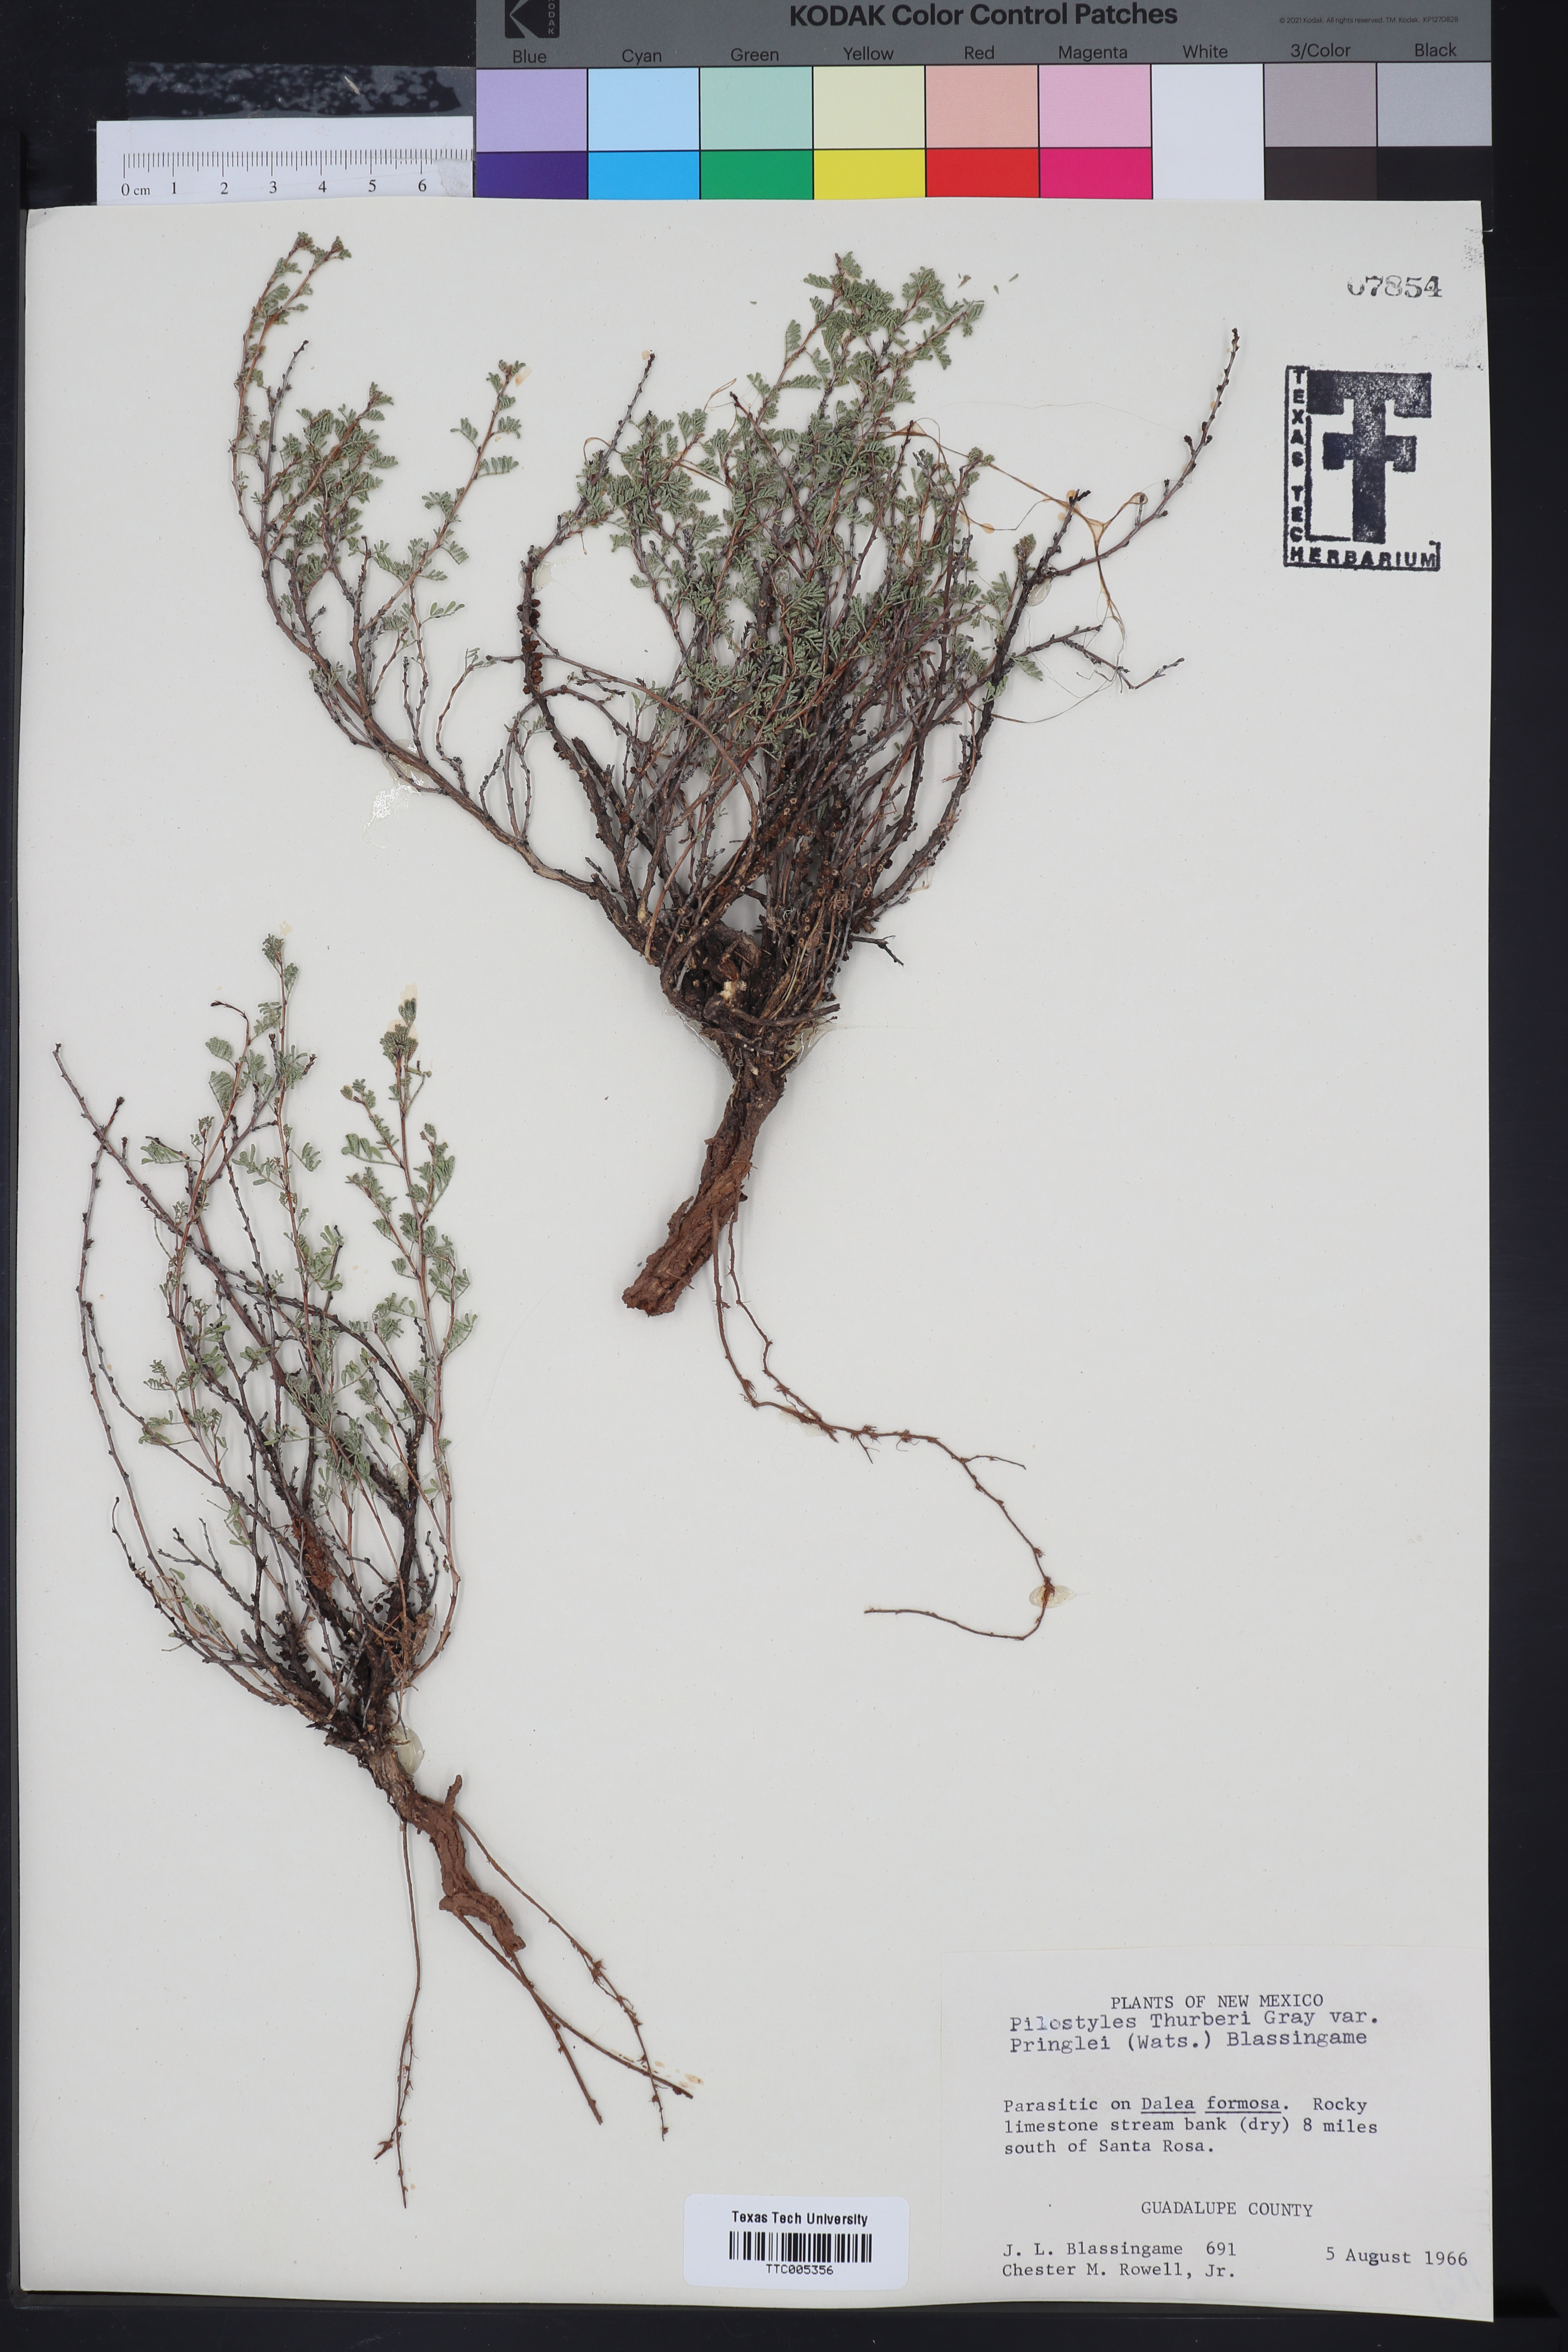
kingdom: Plantae
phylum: Tracheophyta
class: Magnoliopsida
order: Cucurbitales
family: Apodanthaceae
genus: Pilostyles
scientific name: Pilostyles thurberi
